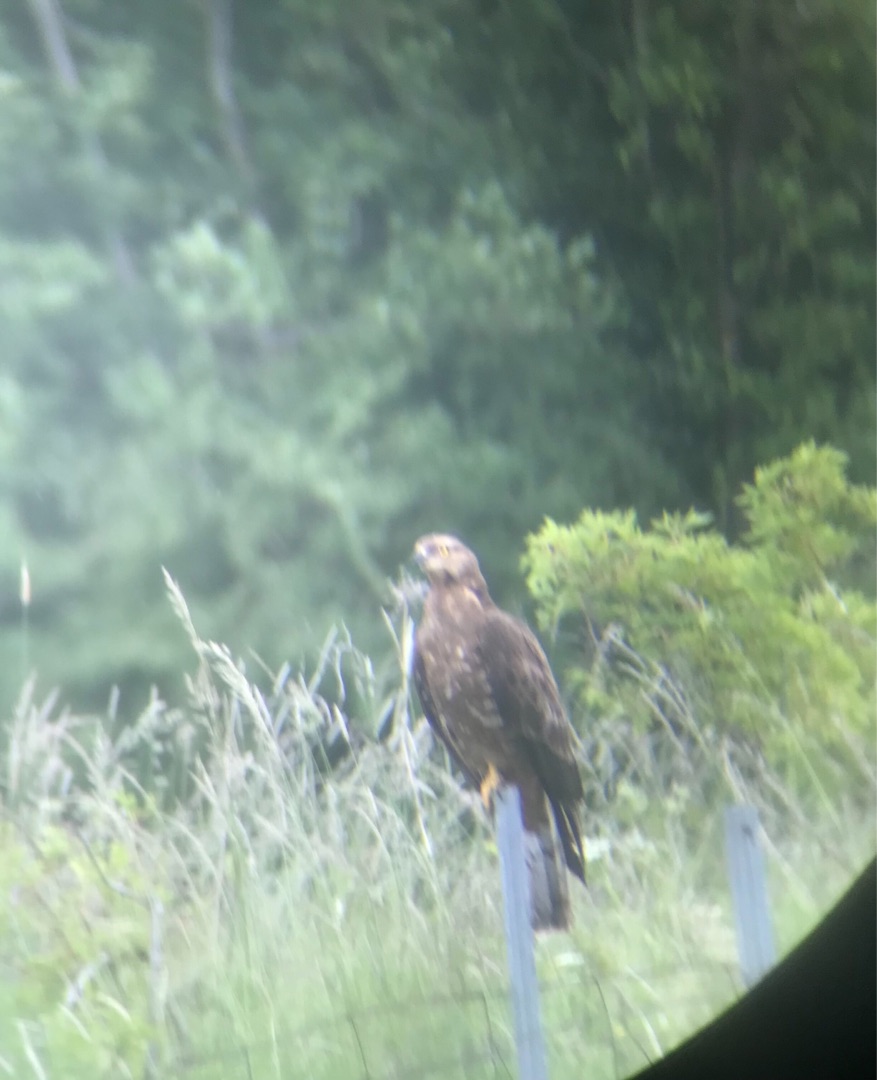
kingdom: Animalia
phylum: Chordata
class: Aves
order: Accipitriformes
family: Accipitridae
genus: Pernis
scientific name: Pernis apivorus
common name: Hvepsevåge
